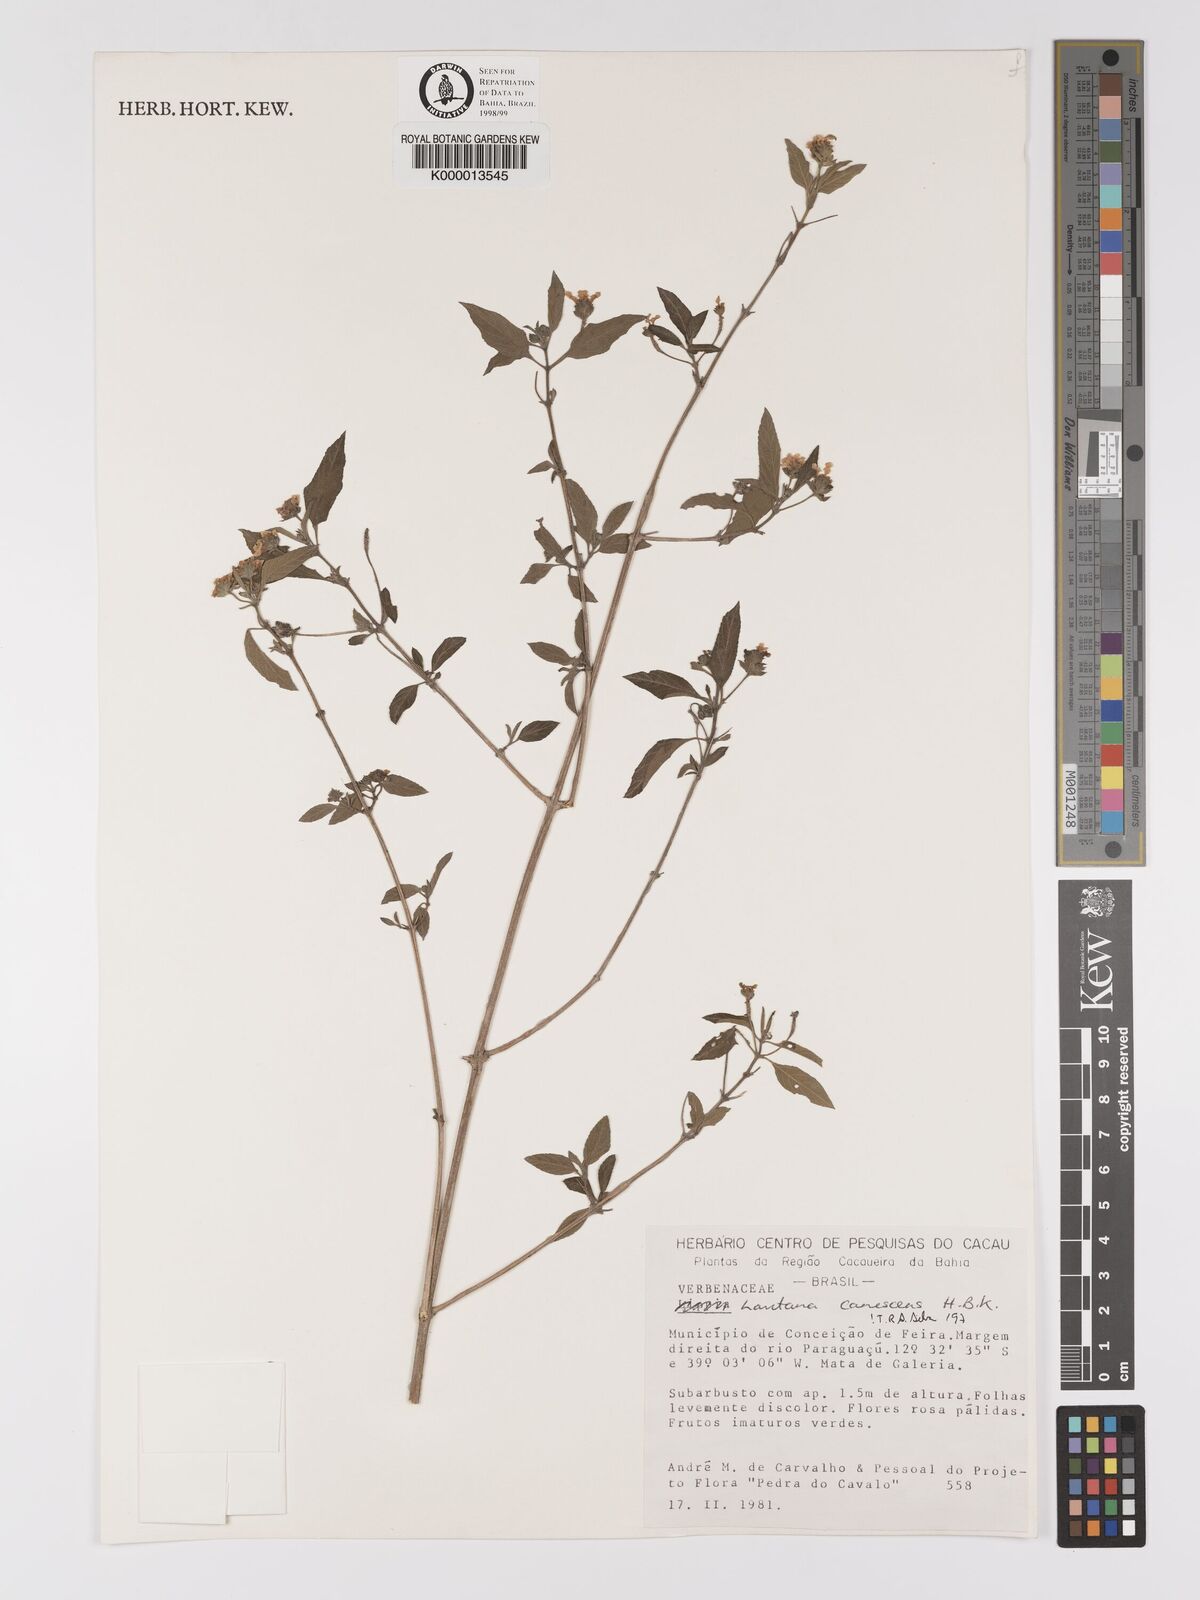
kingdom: Plantae
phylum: Tracheophyta
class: Magnoliopsida
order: Lamiales
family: Verbenaceae
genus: Lantana
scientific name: Lantana canescens
